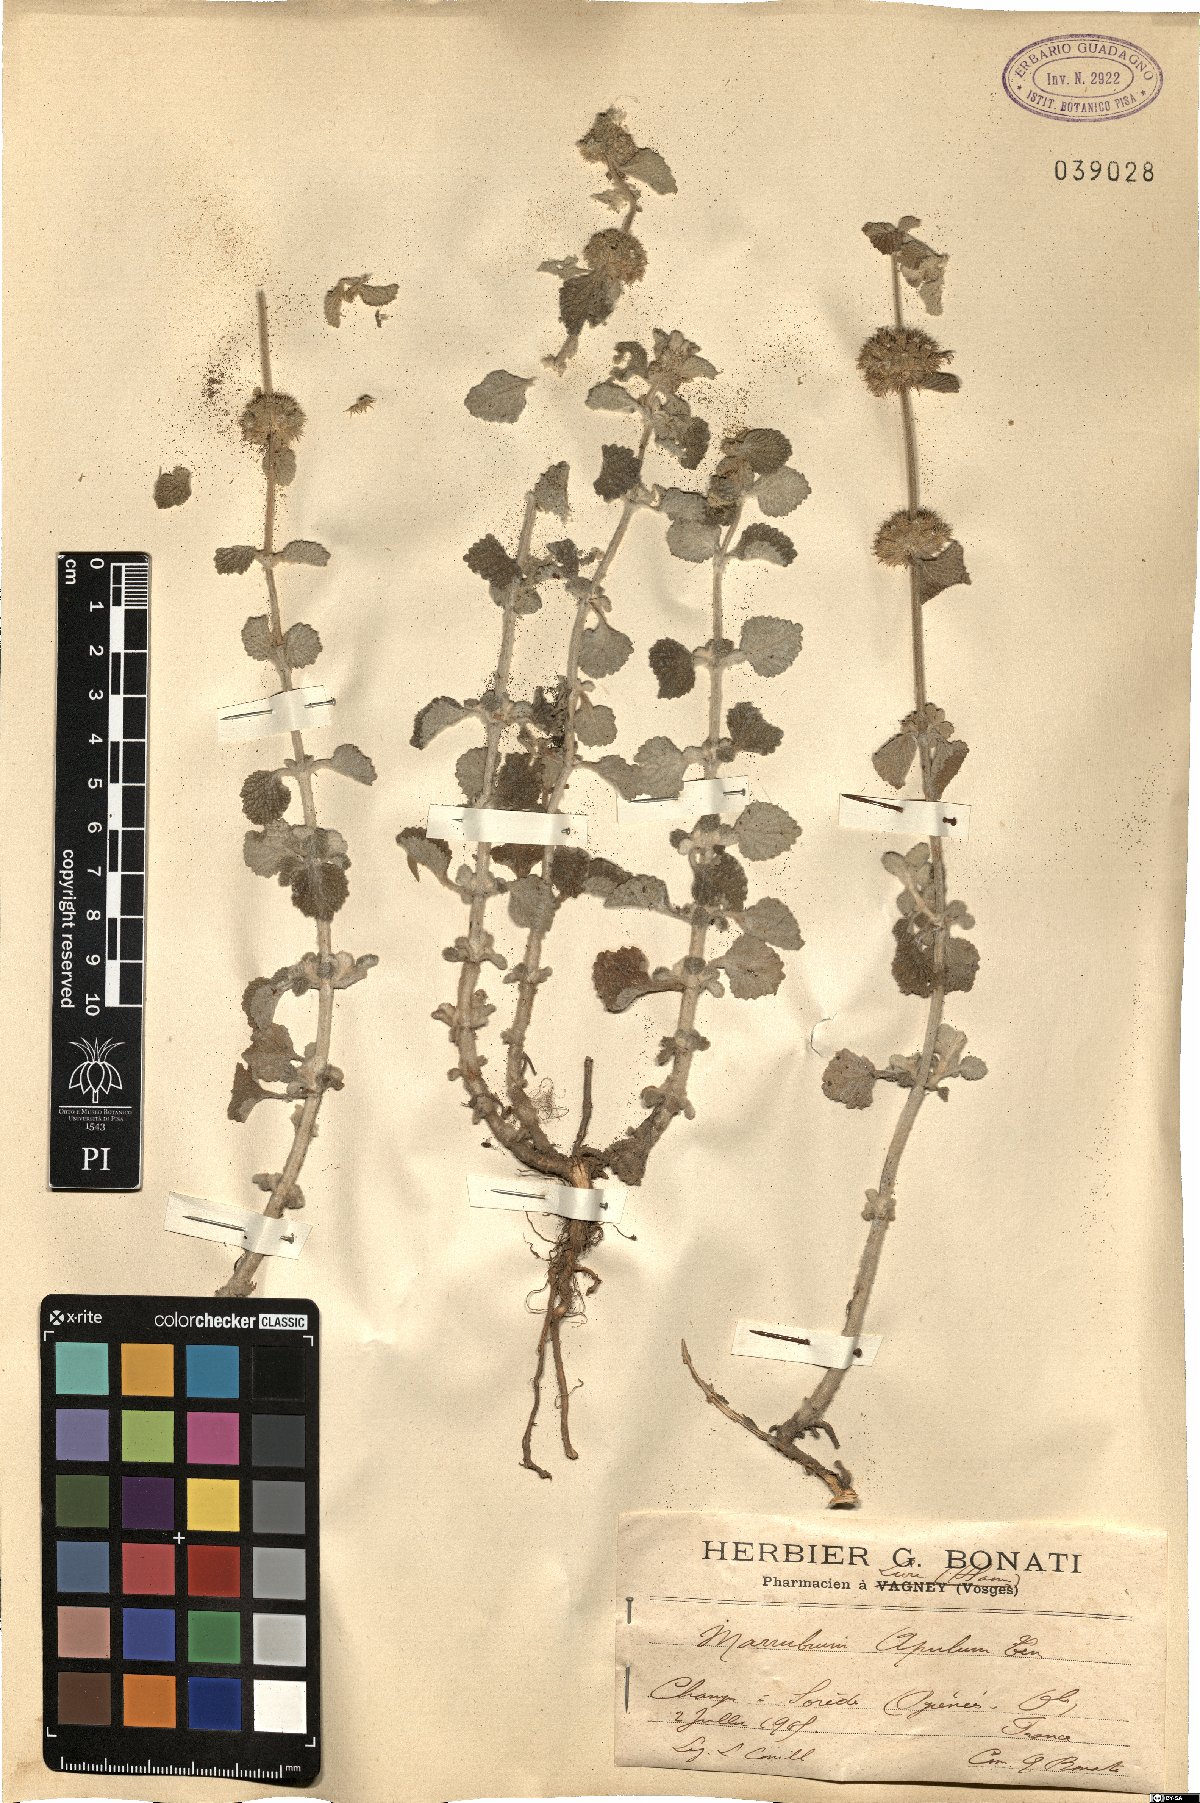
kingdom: Plantae
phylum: Tracheophyta
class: Magnoliopsida
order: Lamiales
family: Lamiaceae
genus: Marrubium
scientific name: Marrubium vulgare
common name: Horehound
